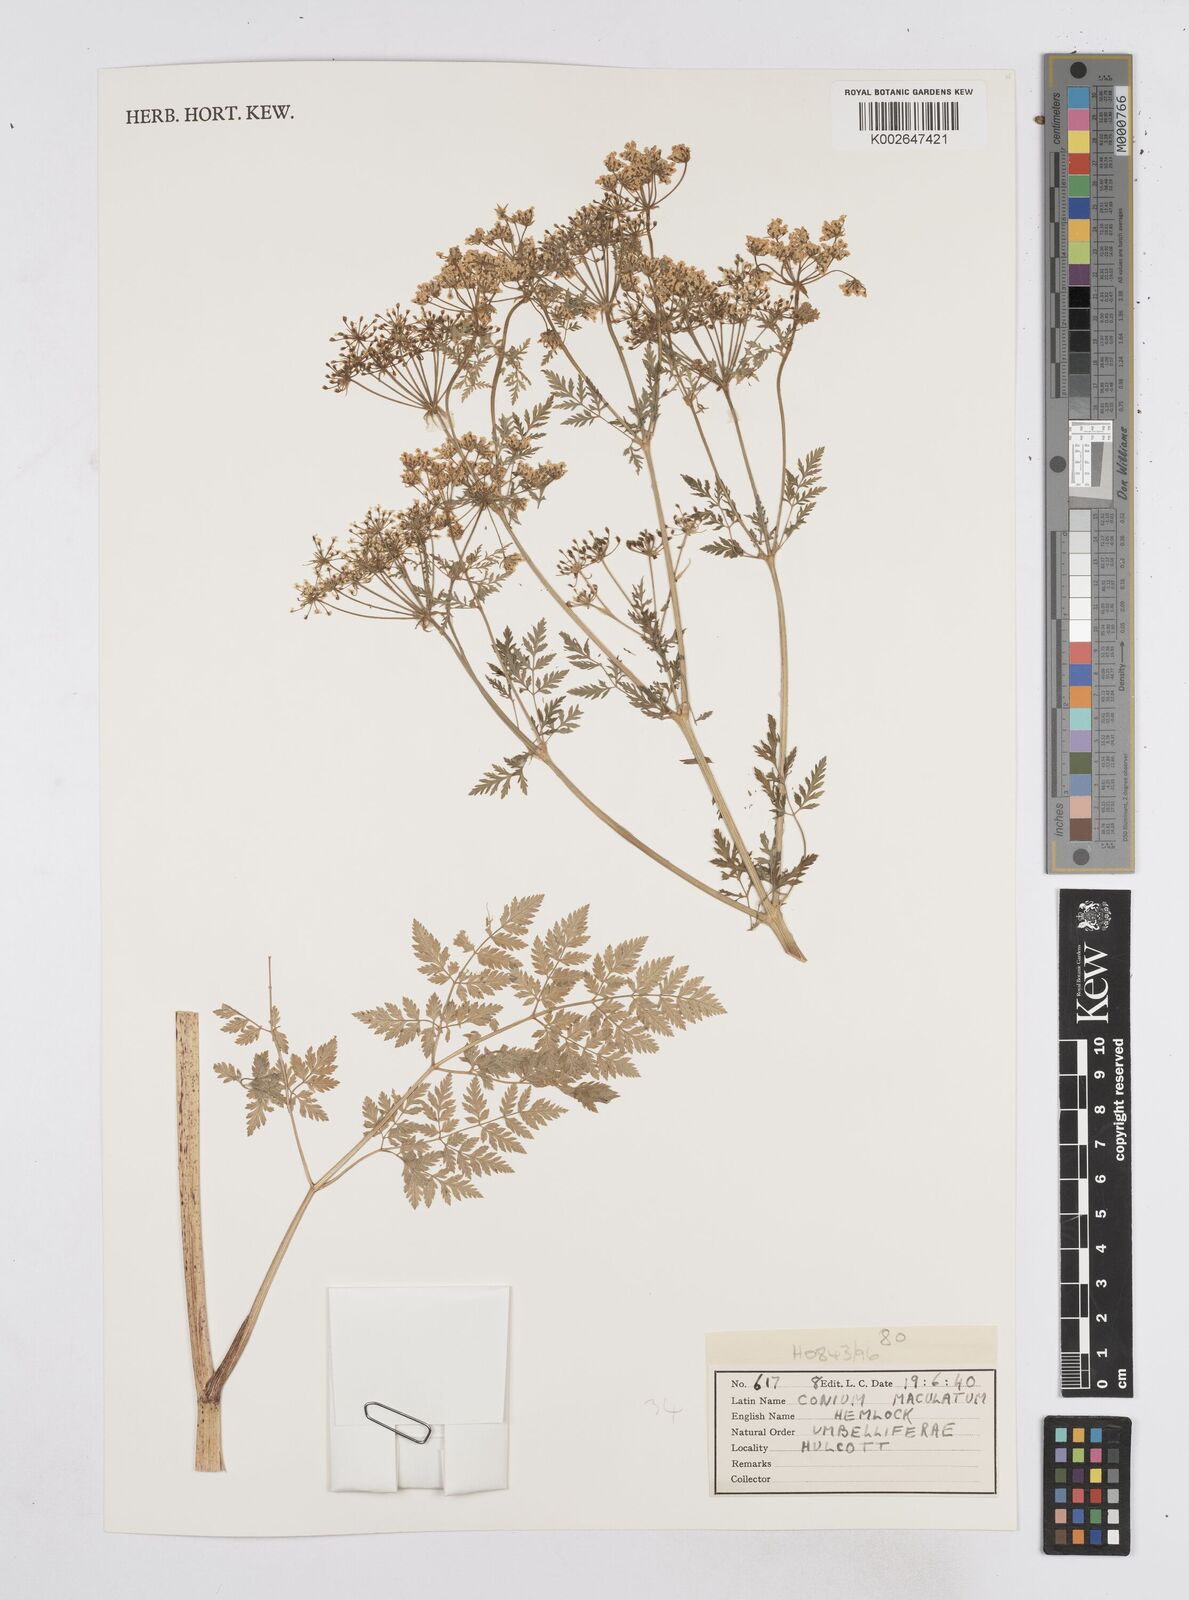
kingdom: Plantae
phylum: Tracheophyta
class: Magnoliopsida
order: Apiales
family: Apiaceae
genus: Conium
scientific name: Conium maculatum
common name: Hemlock
